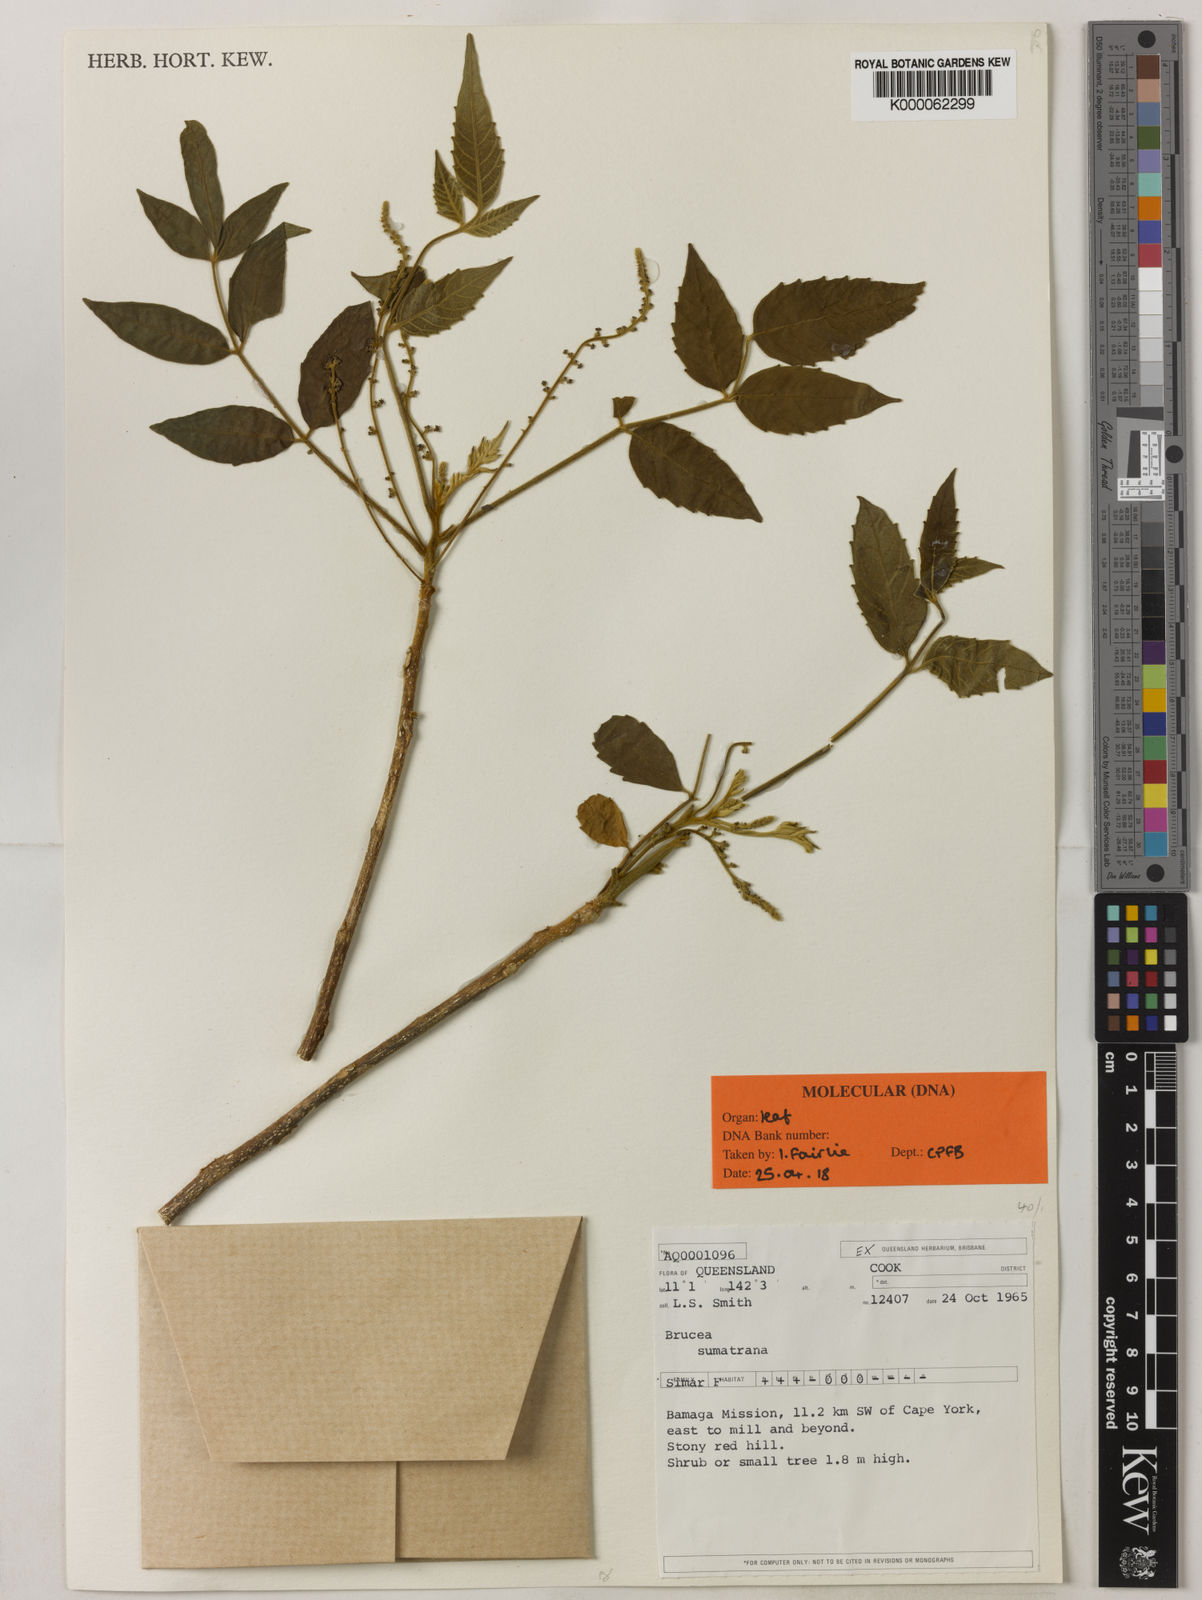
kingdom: Plantae
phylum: Tracheophyta
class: Magnoliopsida
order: Sapindales
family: Simaroubaceae
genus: Brucea
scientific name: Brucea javanica
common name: Macassar kernels
